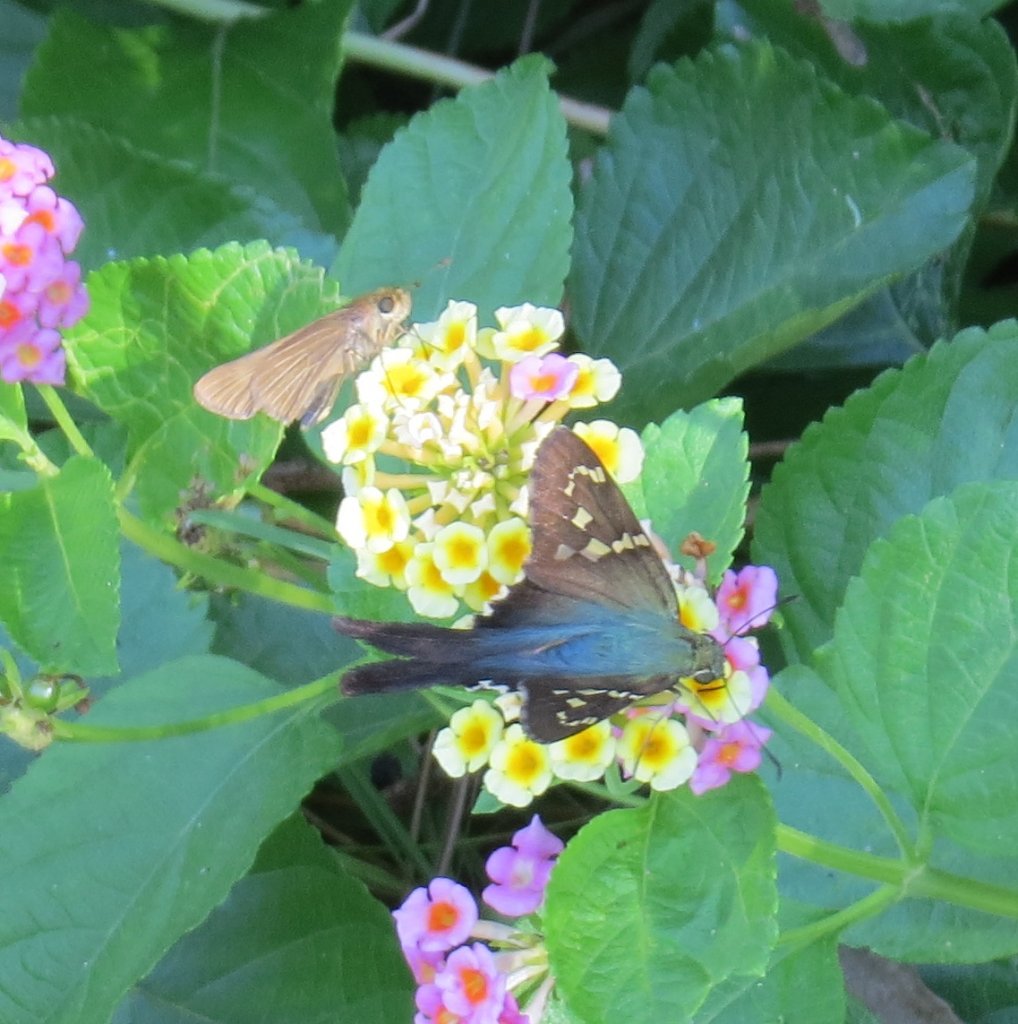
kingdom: Animalia
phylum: Arthropoda
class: Insecta
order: Lepidoptera
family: Hesperiidae
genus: Panoquina
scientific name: Panoquina ocola
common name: Ocola Skipper
